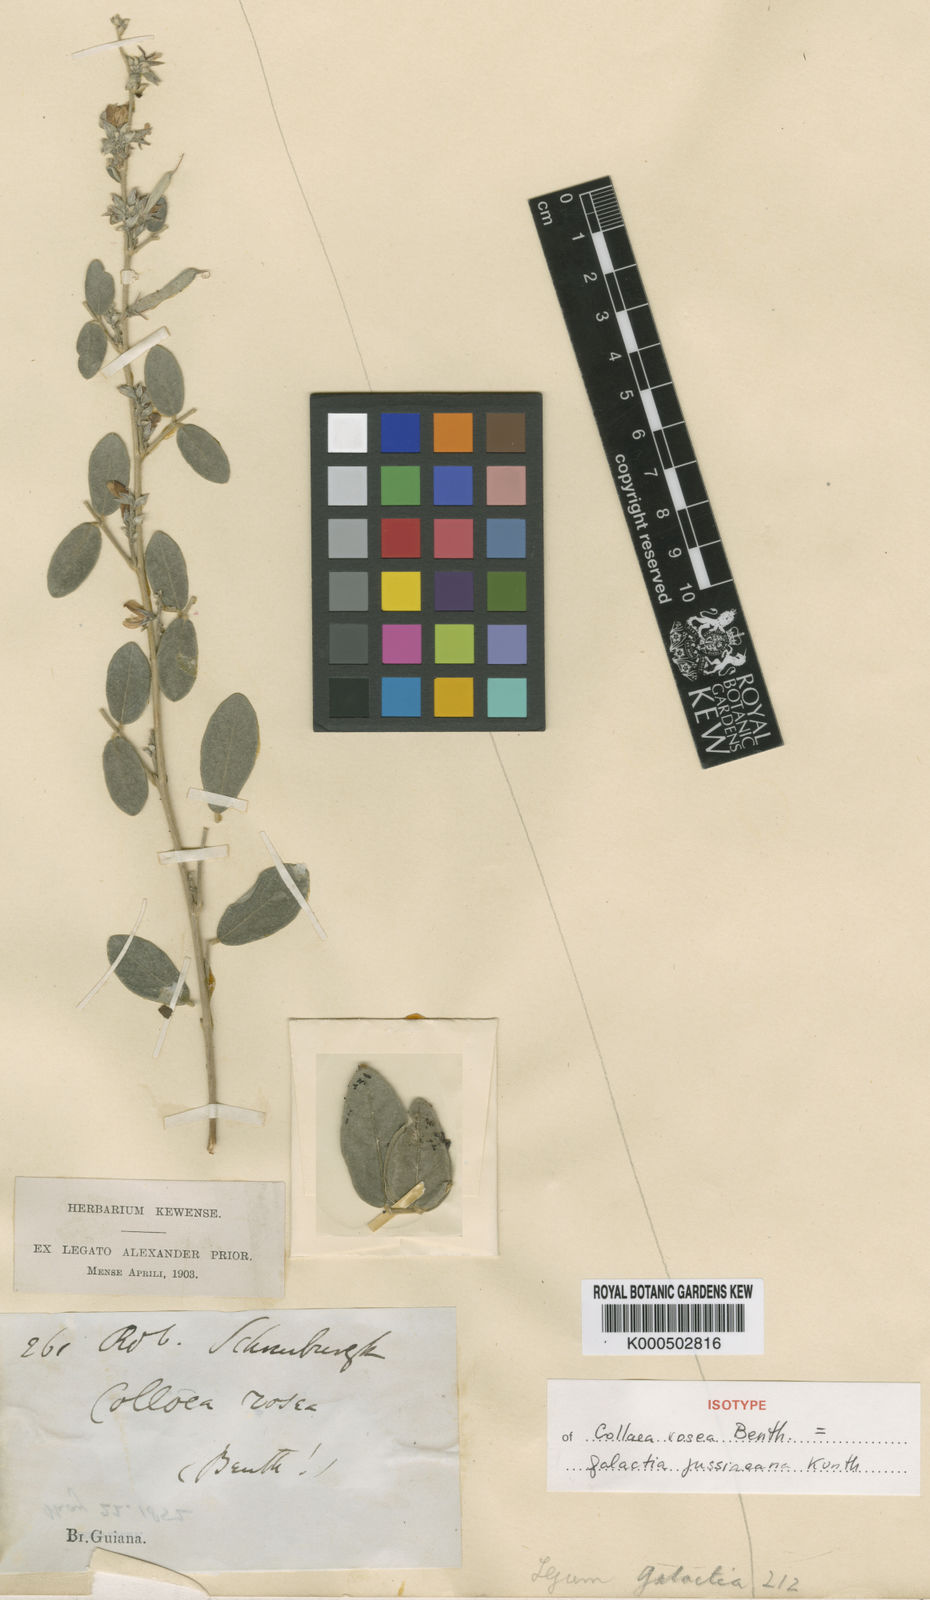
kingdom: Plantae
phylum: Tracheophyta
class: Magnoliopsida
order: Fabales
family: Fabaceae
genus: Galactia
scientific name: Galactia jussiaeana
